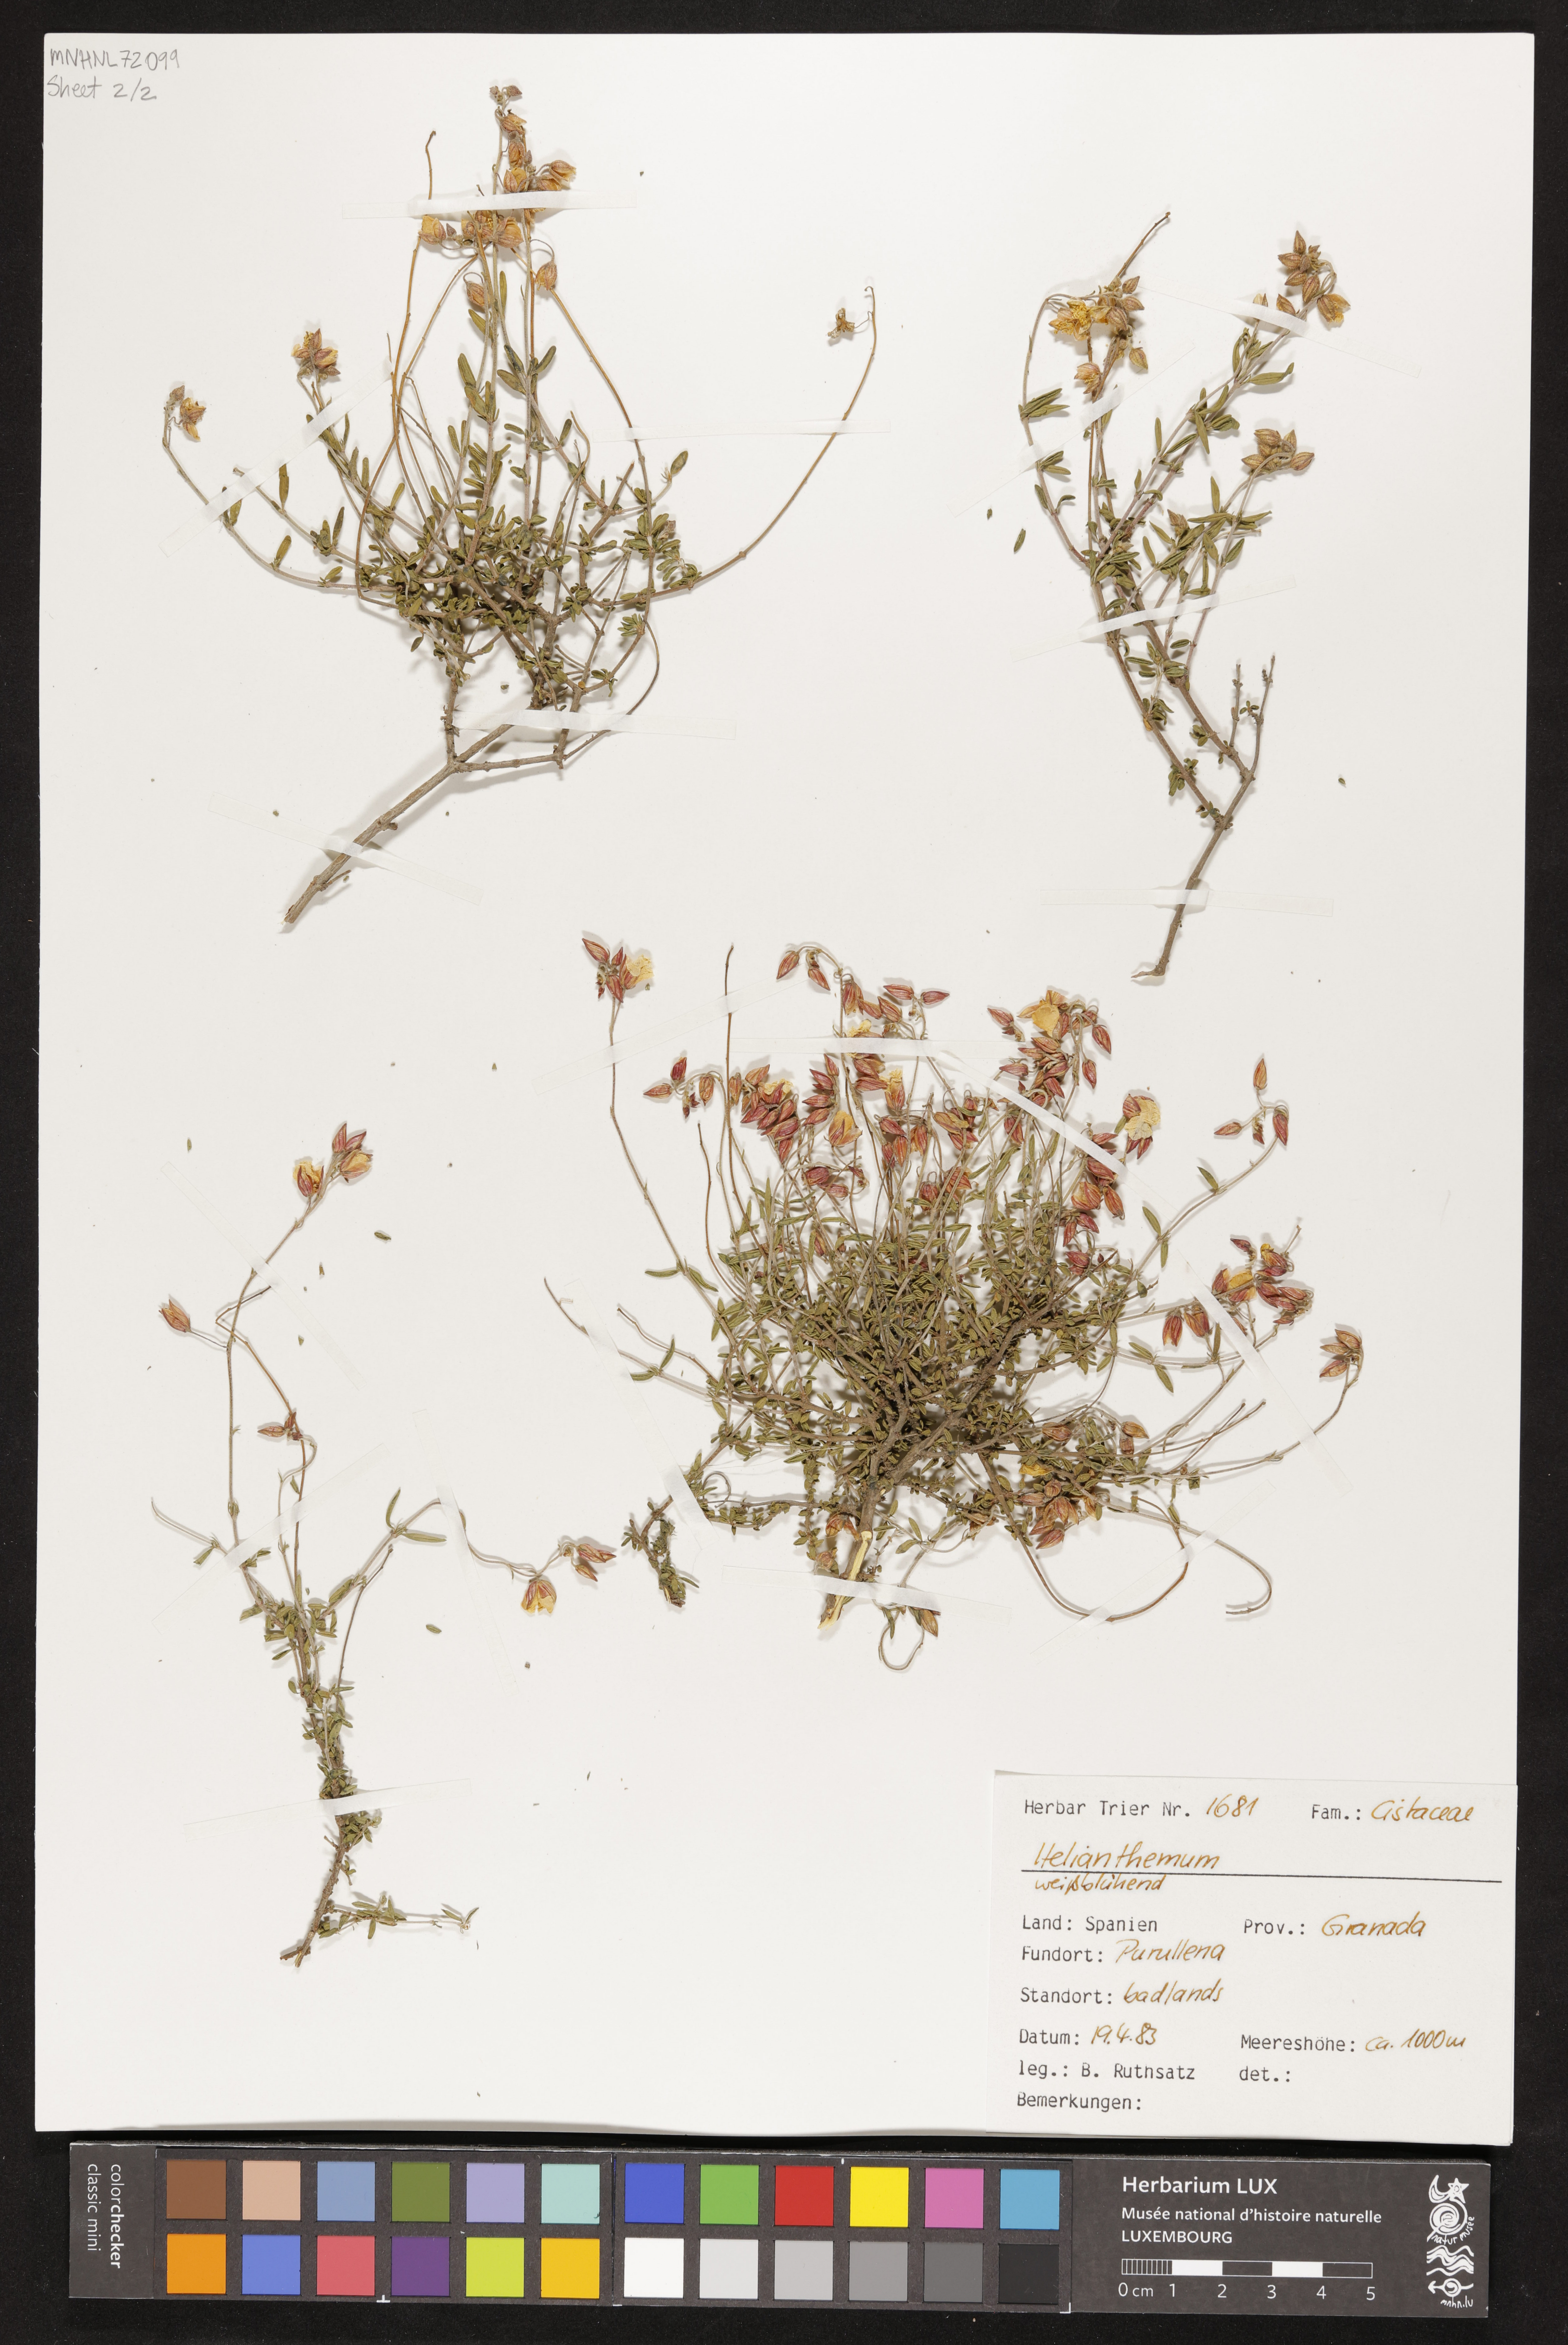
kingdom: Plantae
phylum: Tracheophyta
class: Magnoliopsida
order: Malvales
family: Cistaceae
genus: Helianthemum
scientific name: Helianthemum
